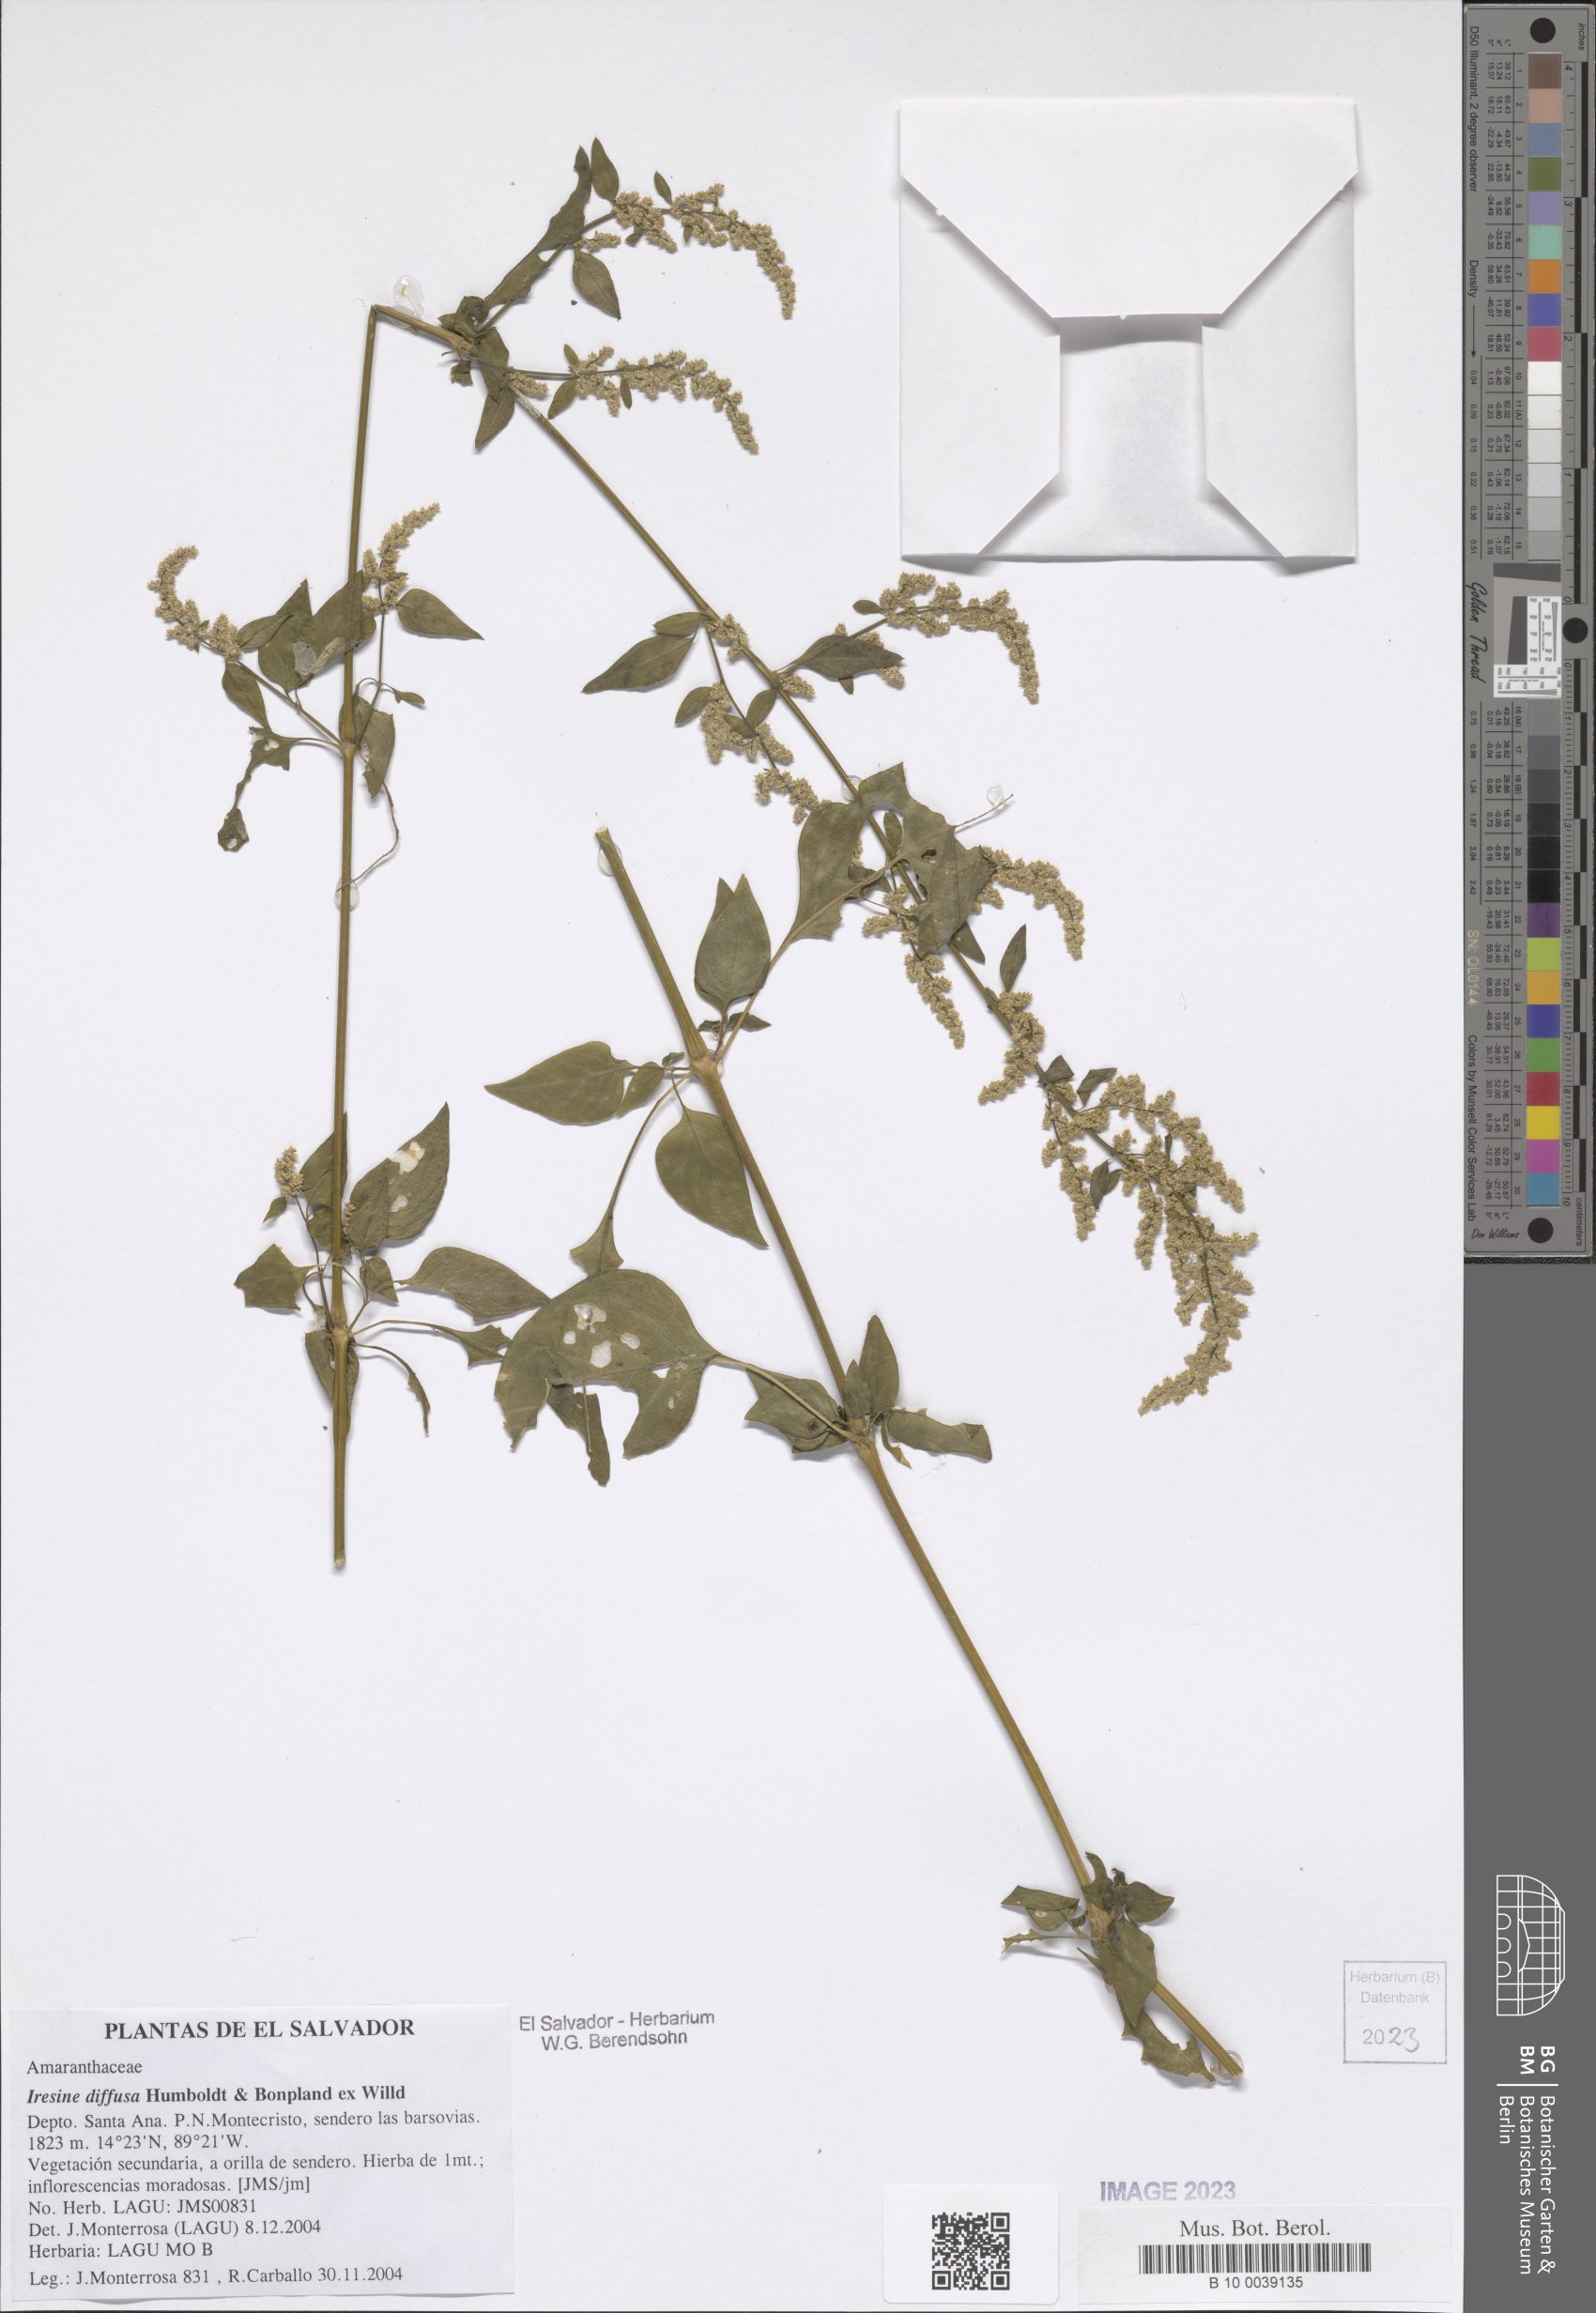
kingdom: Plantae
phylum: Tracheophyta
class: Magnoliopsida
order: Caryophyllales
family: Amaranthaceae
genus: Iresine
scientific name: Iresine diffusa
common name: Juba's-bush
